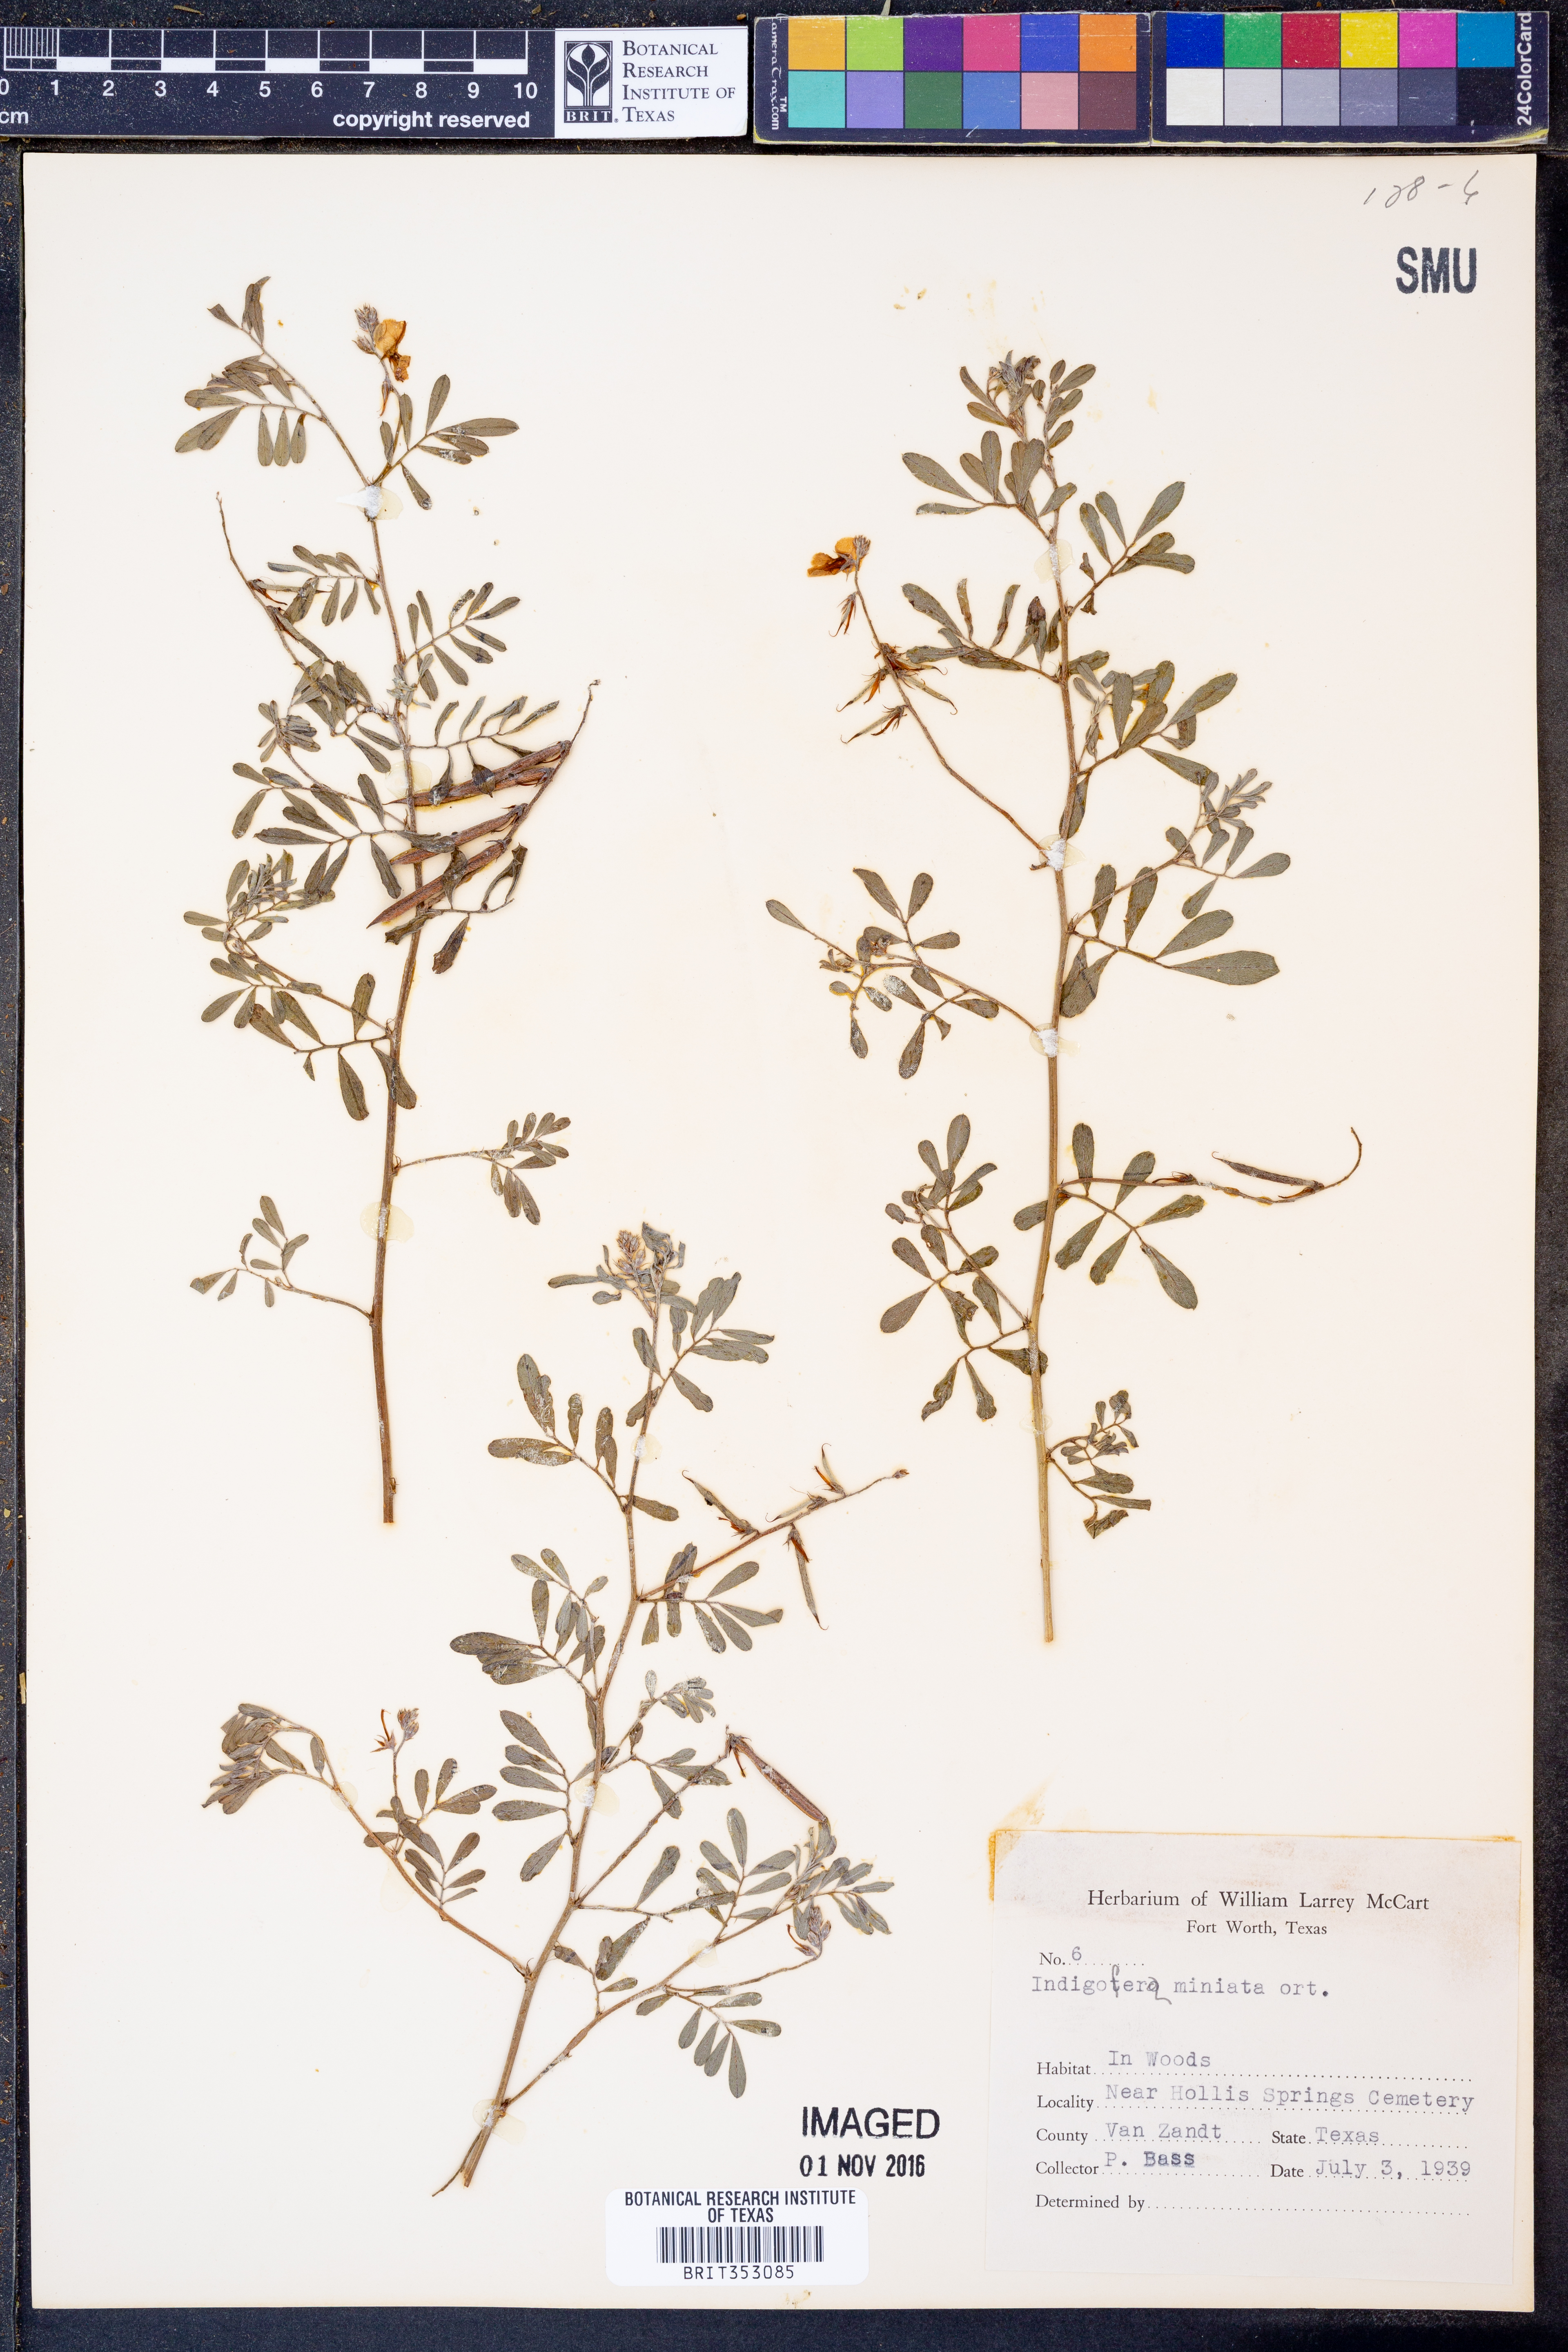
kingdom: Plantae
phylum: Tracheophyta
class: Magnoliopsida
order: Fabales
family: Fabaceae
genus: Indigofera
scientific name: Indigofera miniata
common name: Coast indigo
